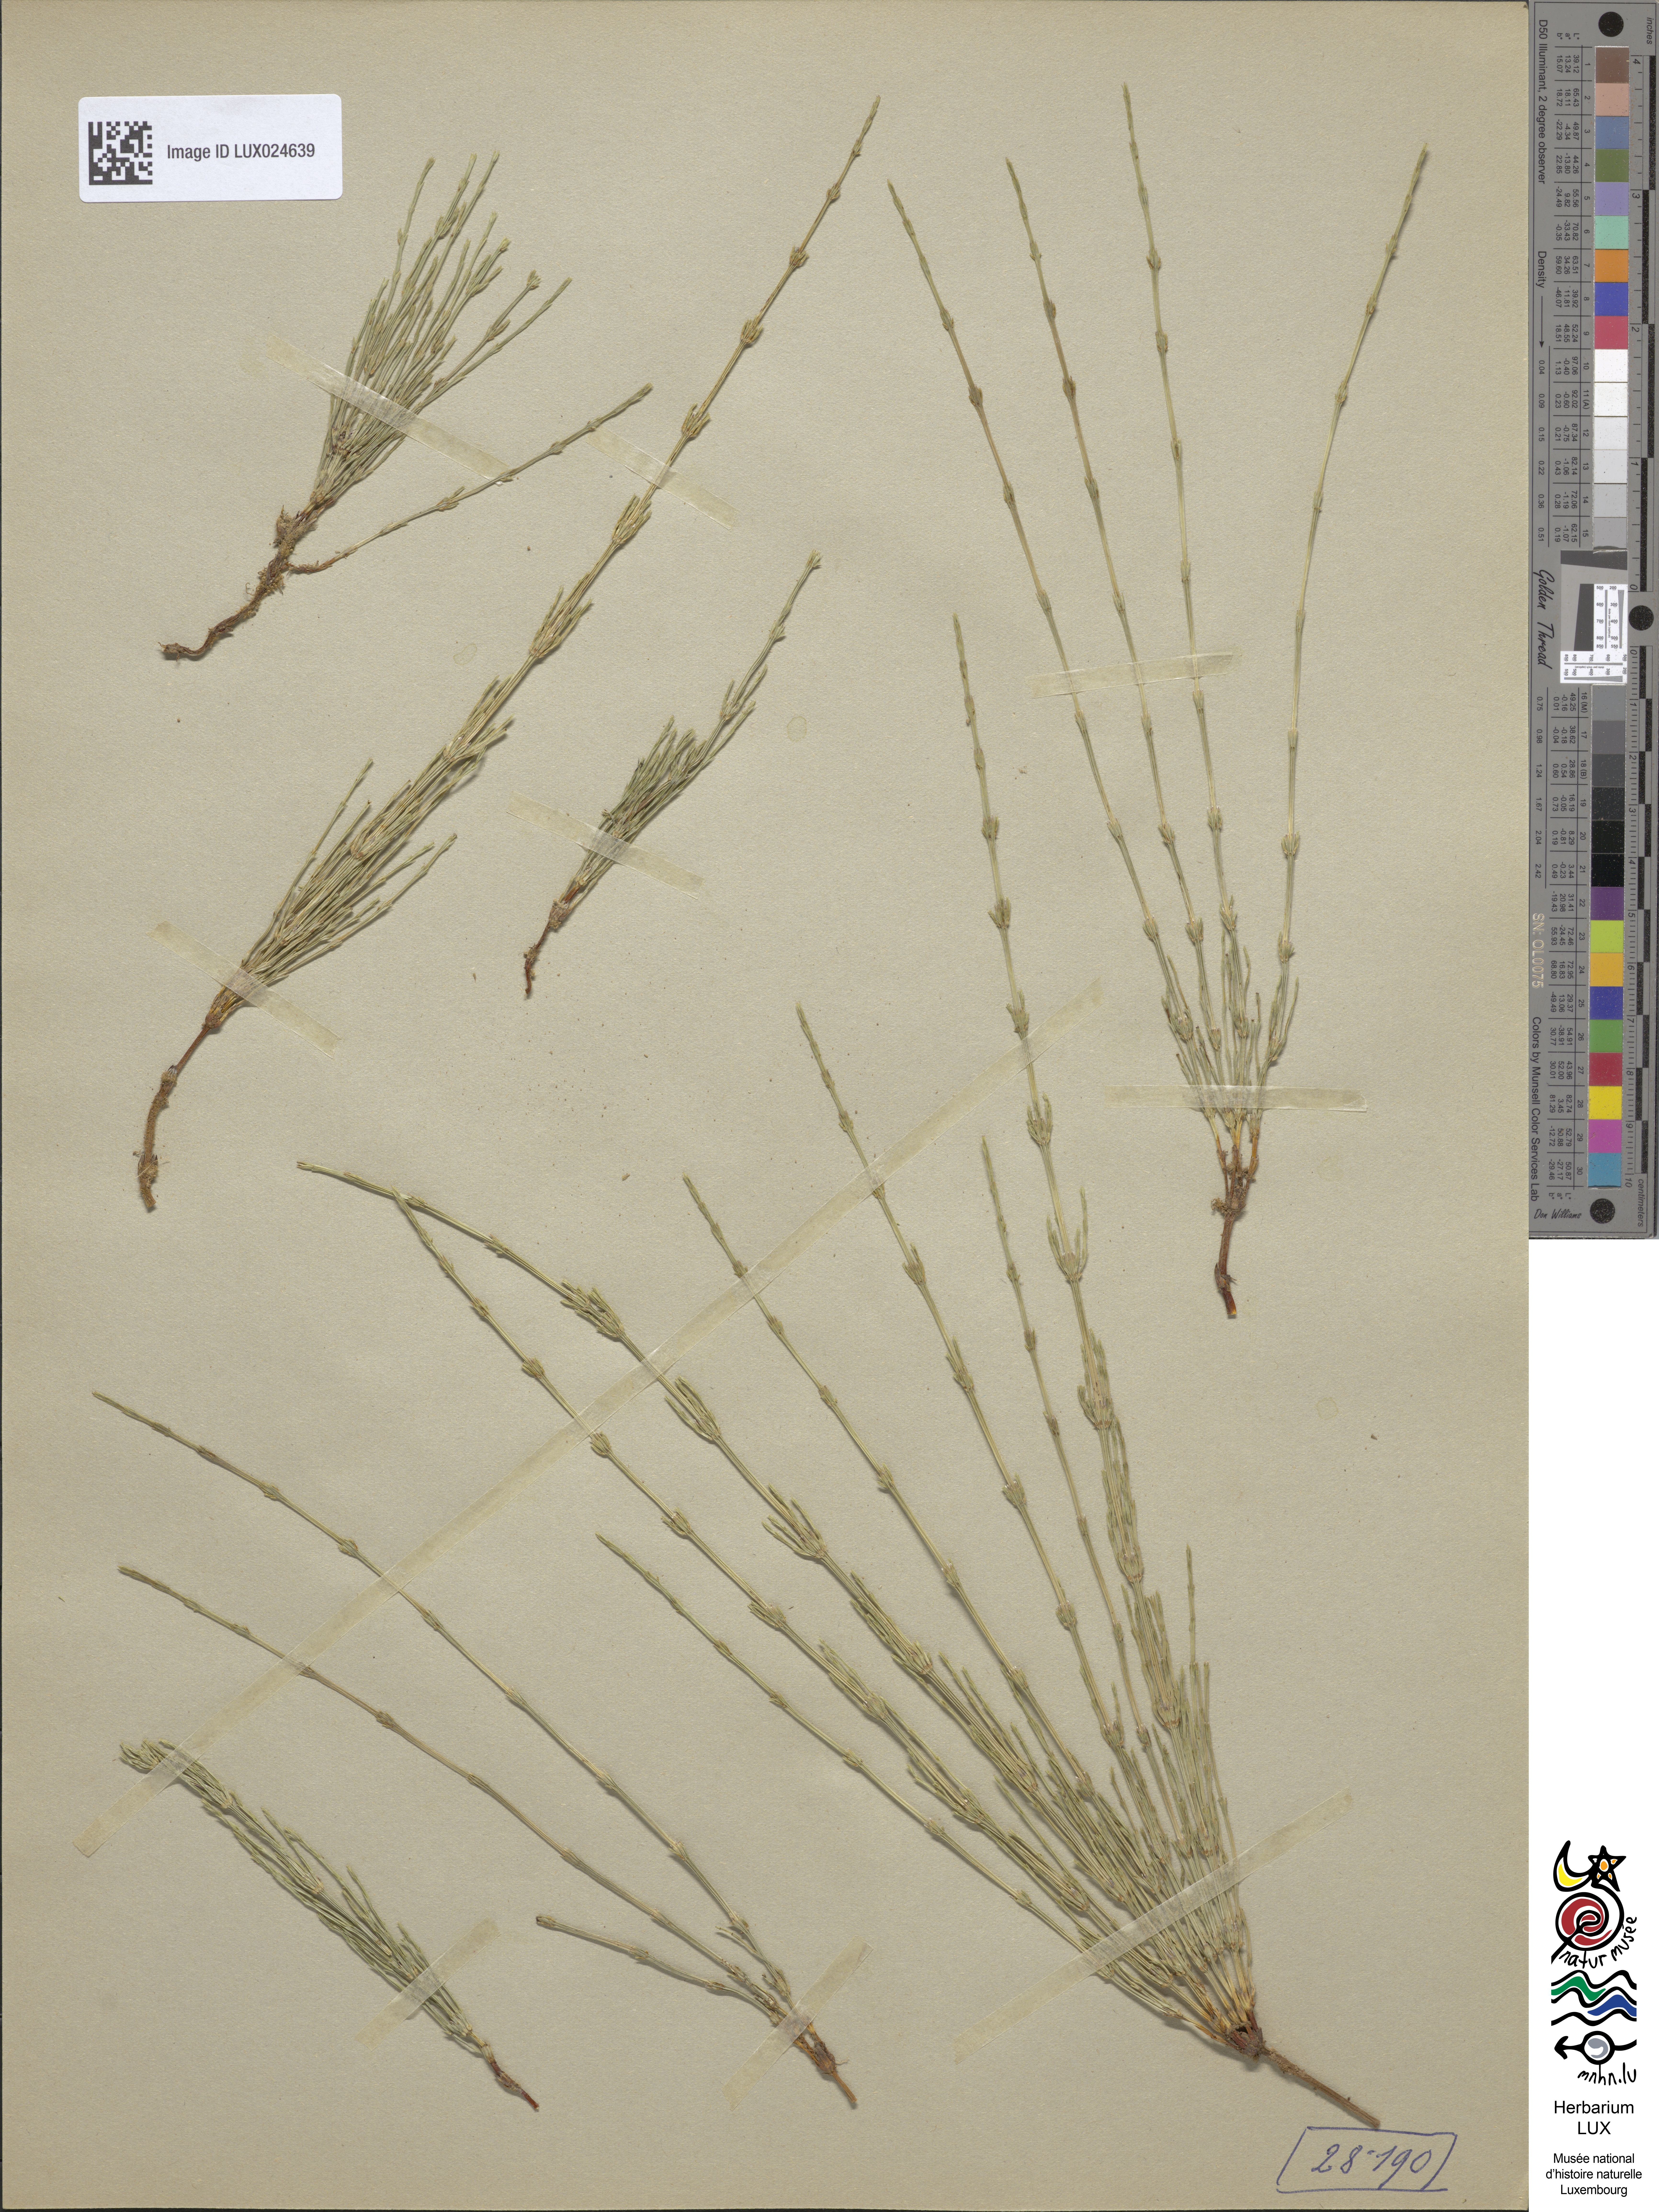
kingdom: Plantae
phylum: Tracheophyta
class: Polypodiopsida
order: Equisetales
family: Equisetaceae
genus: Equisetum
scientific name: Equisetum arvense
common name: Field horsetail
